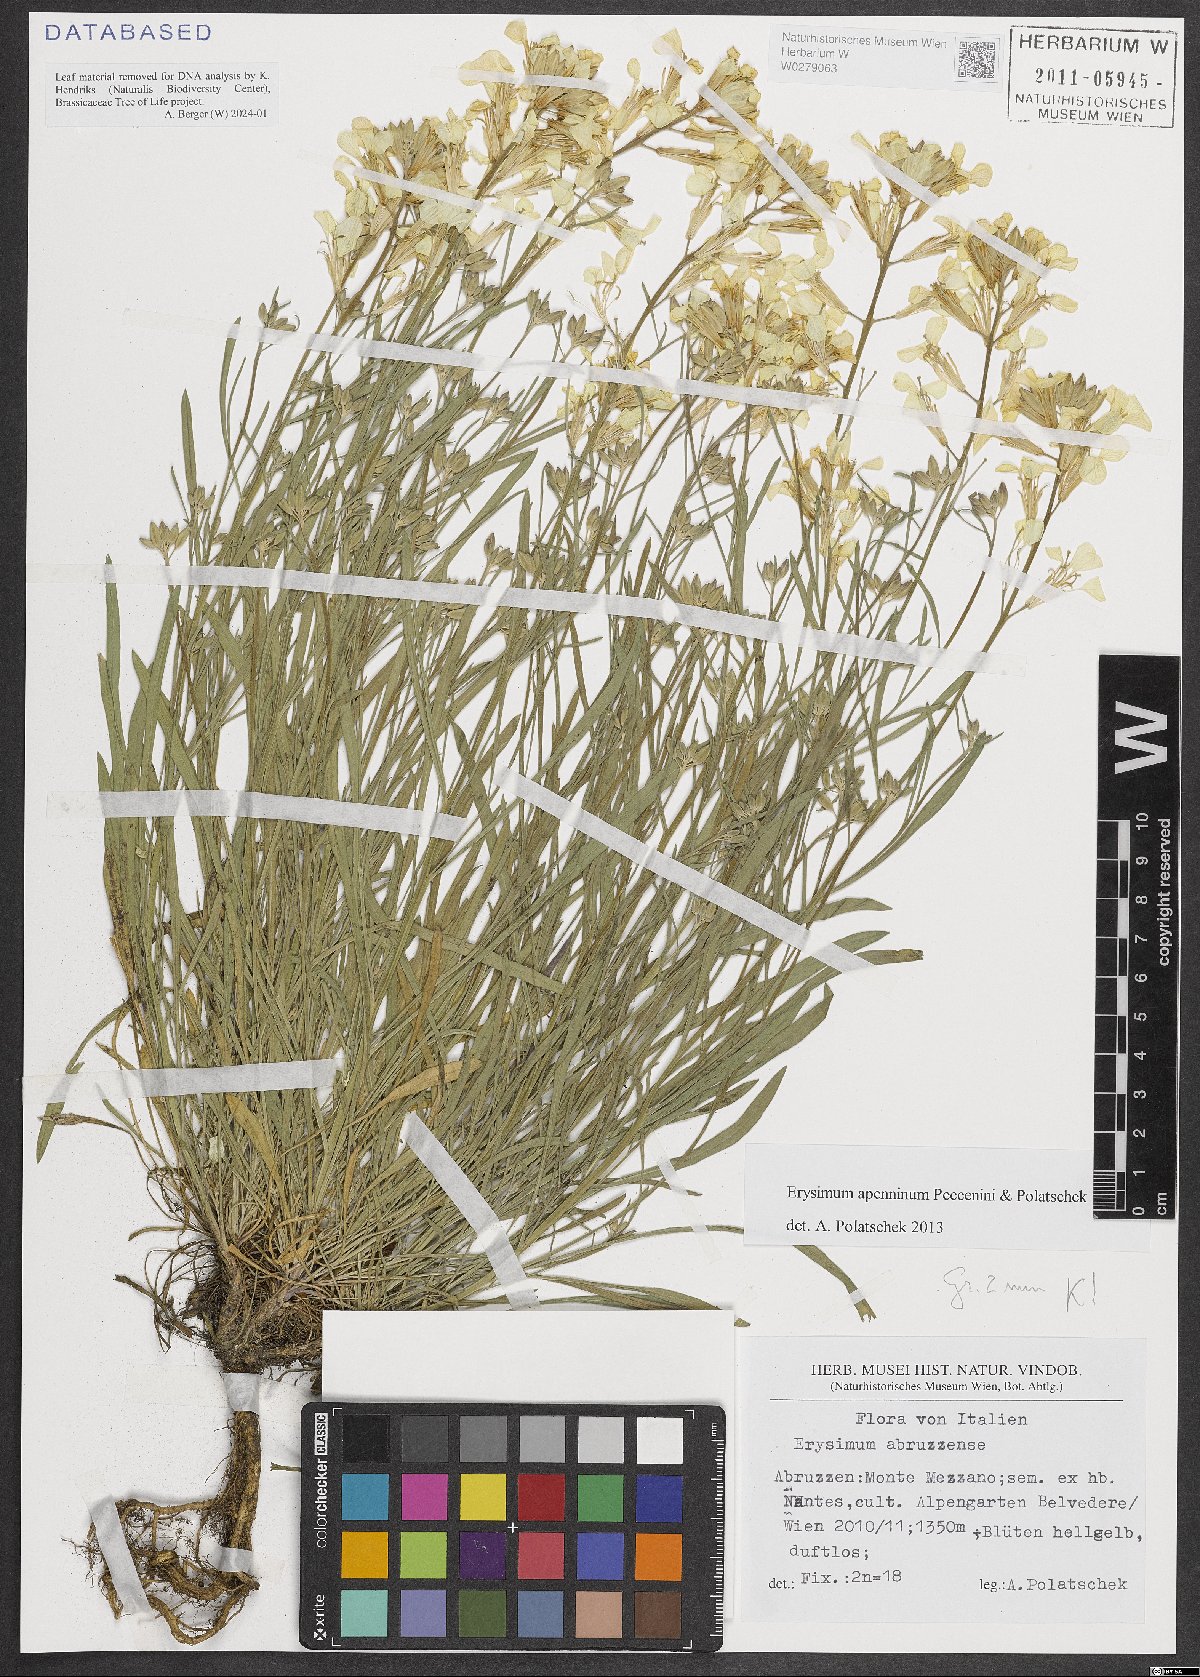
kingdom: Plantae
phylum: Tracheophyta
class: Magnoliopsida
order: Brassicales
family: Brassicaceae
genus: Erysimum
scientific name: Erysimum apenninum
